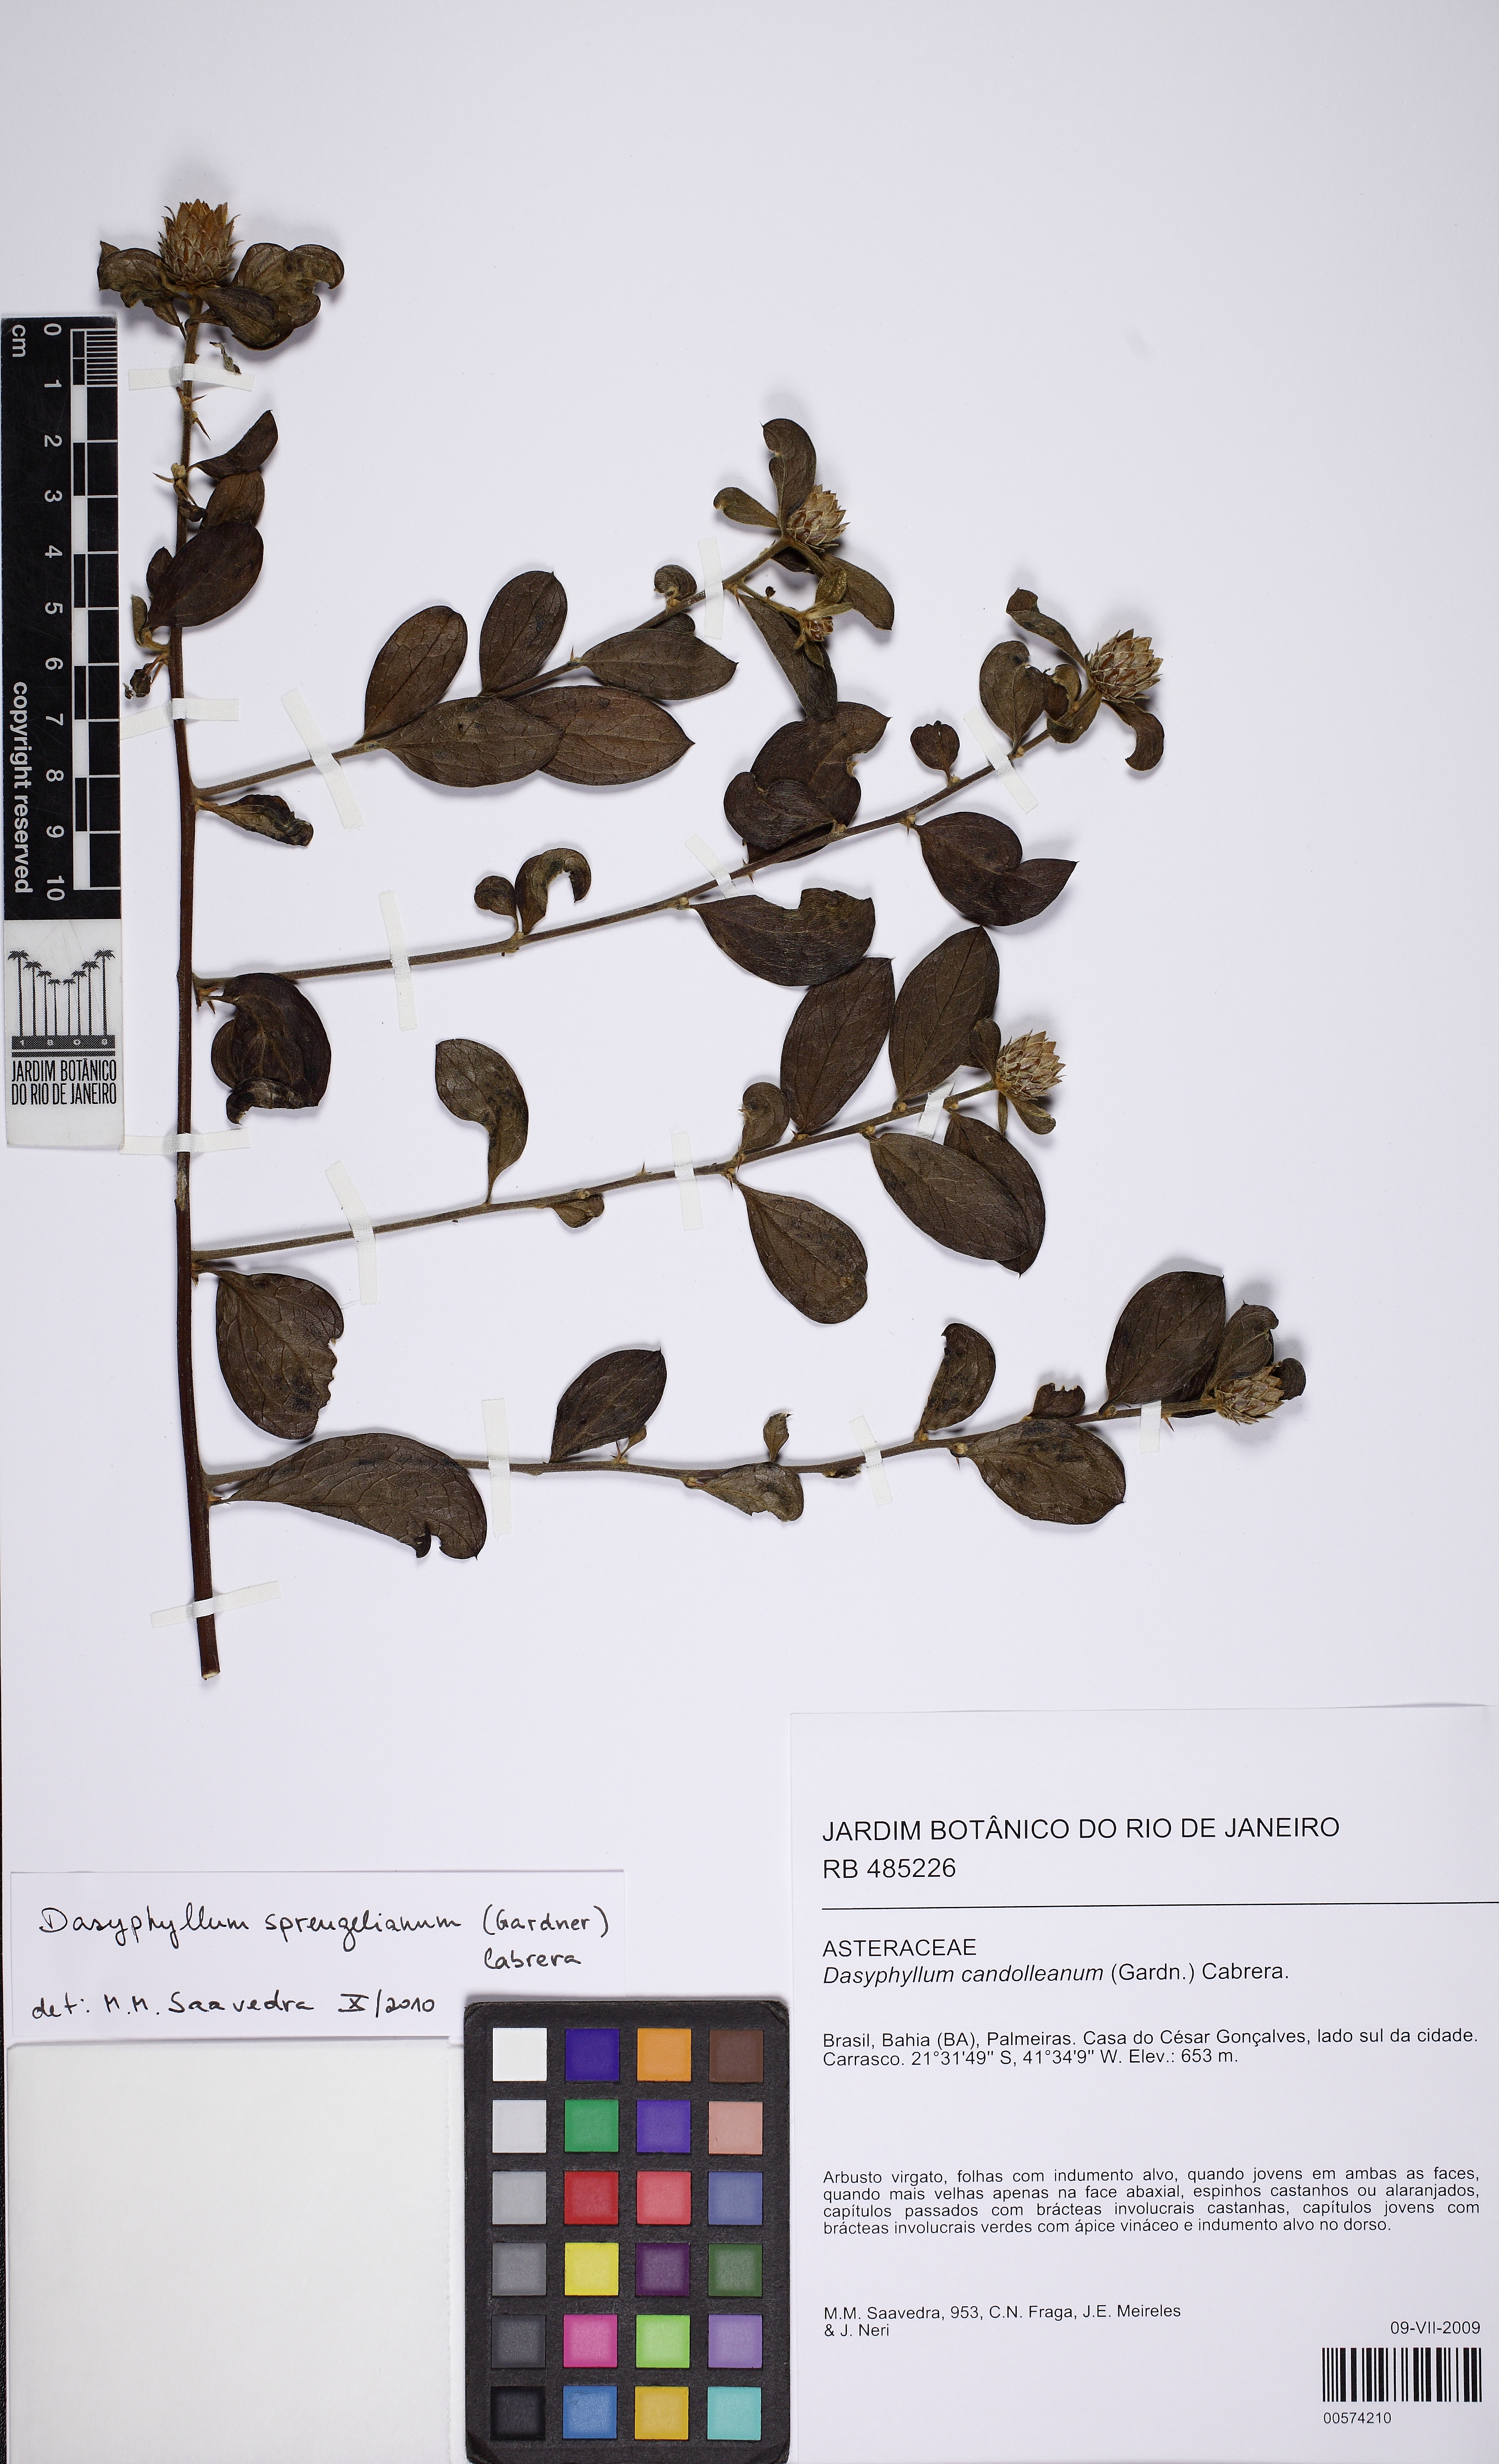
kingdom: Plantae
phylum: Tracheophyta
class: Magnoliopsida
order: Asterales
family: Asteraceae
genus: Dasyphyllum
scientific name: Dasyphyllum sprengelianum
